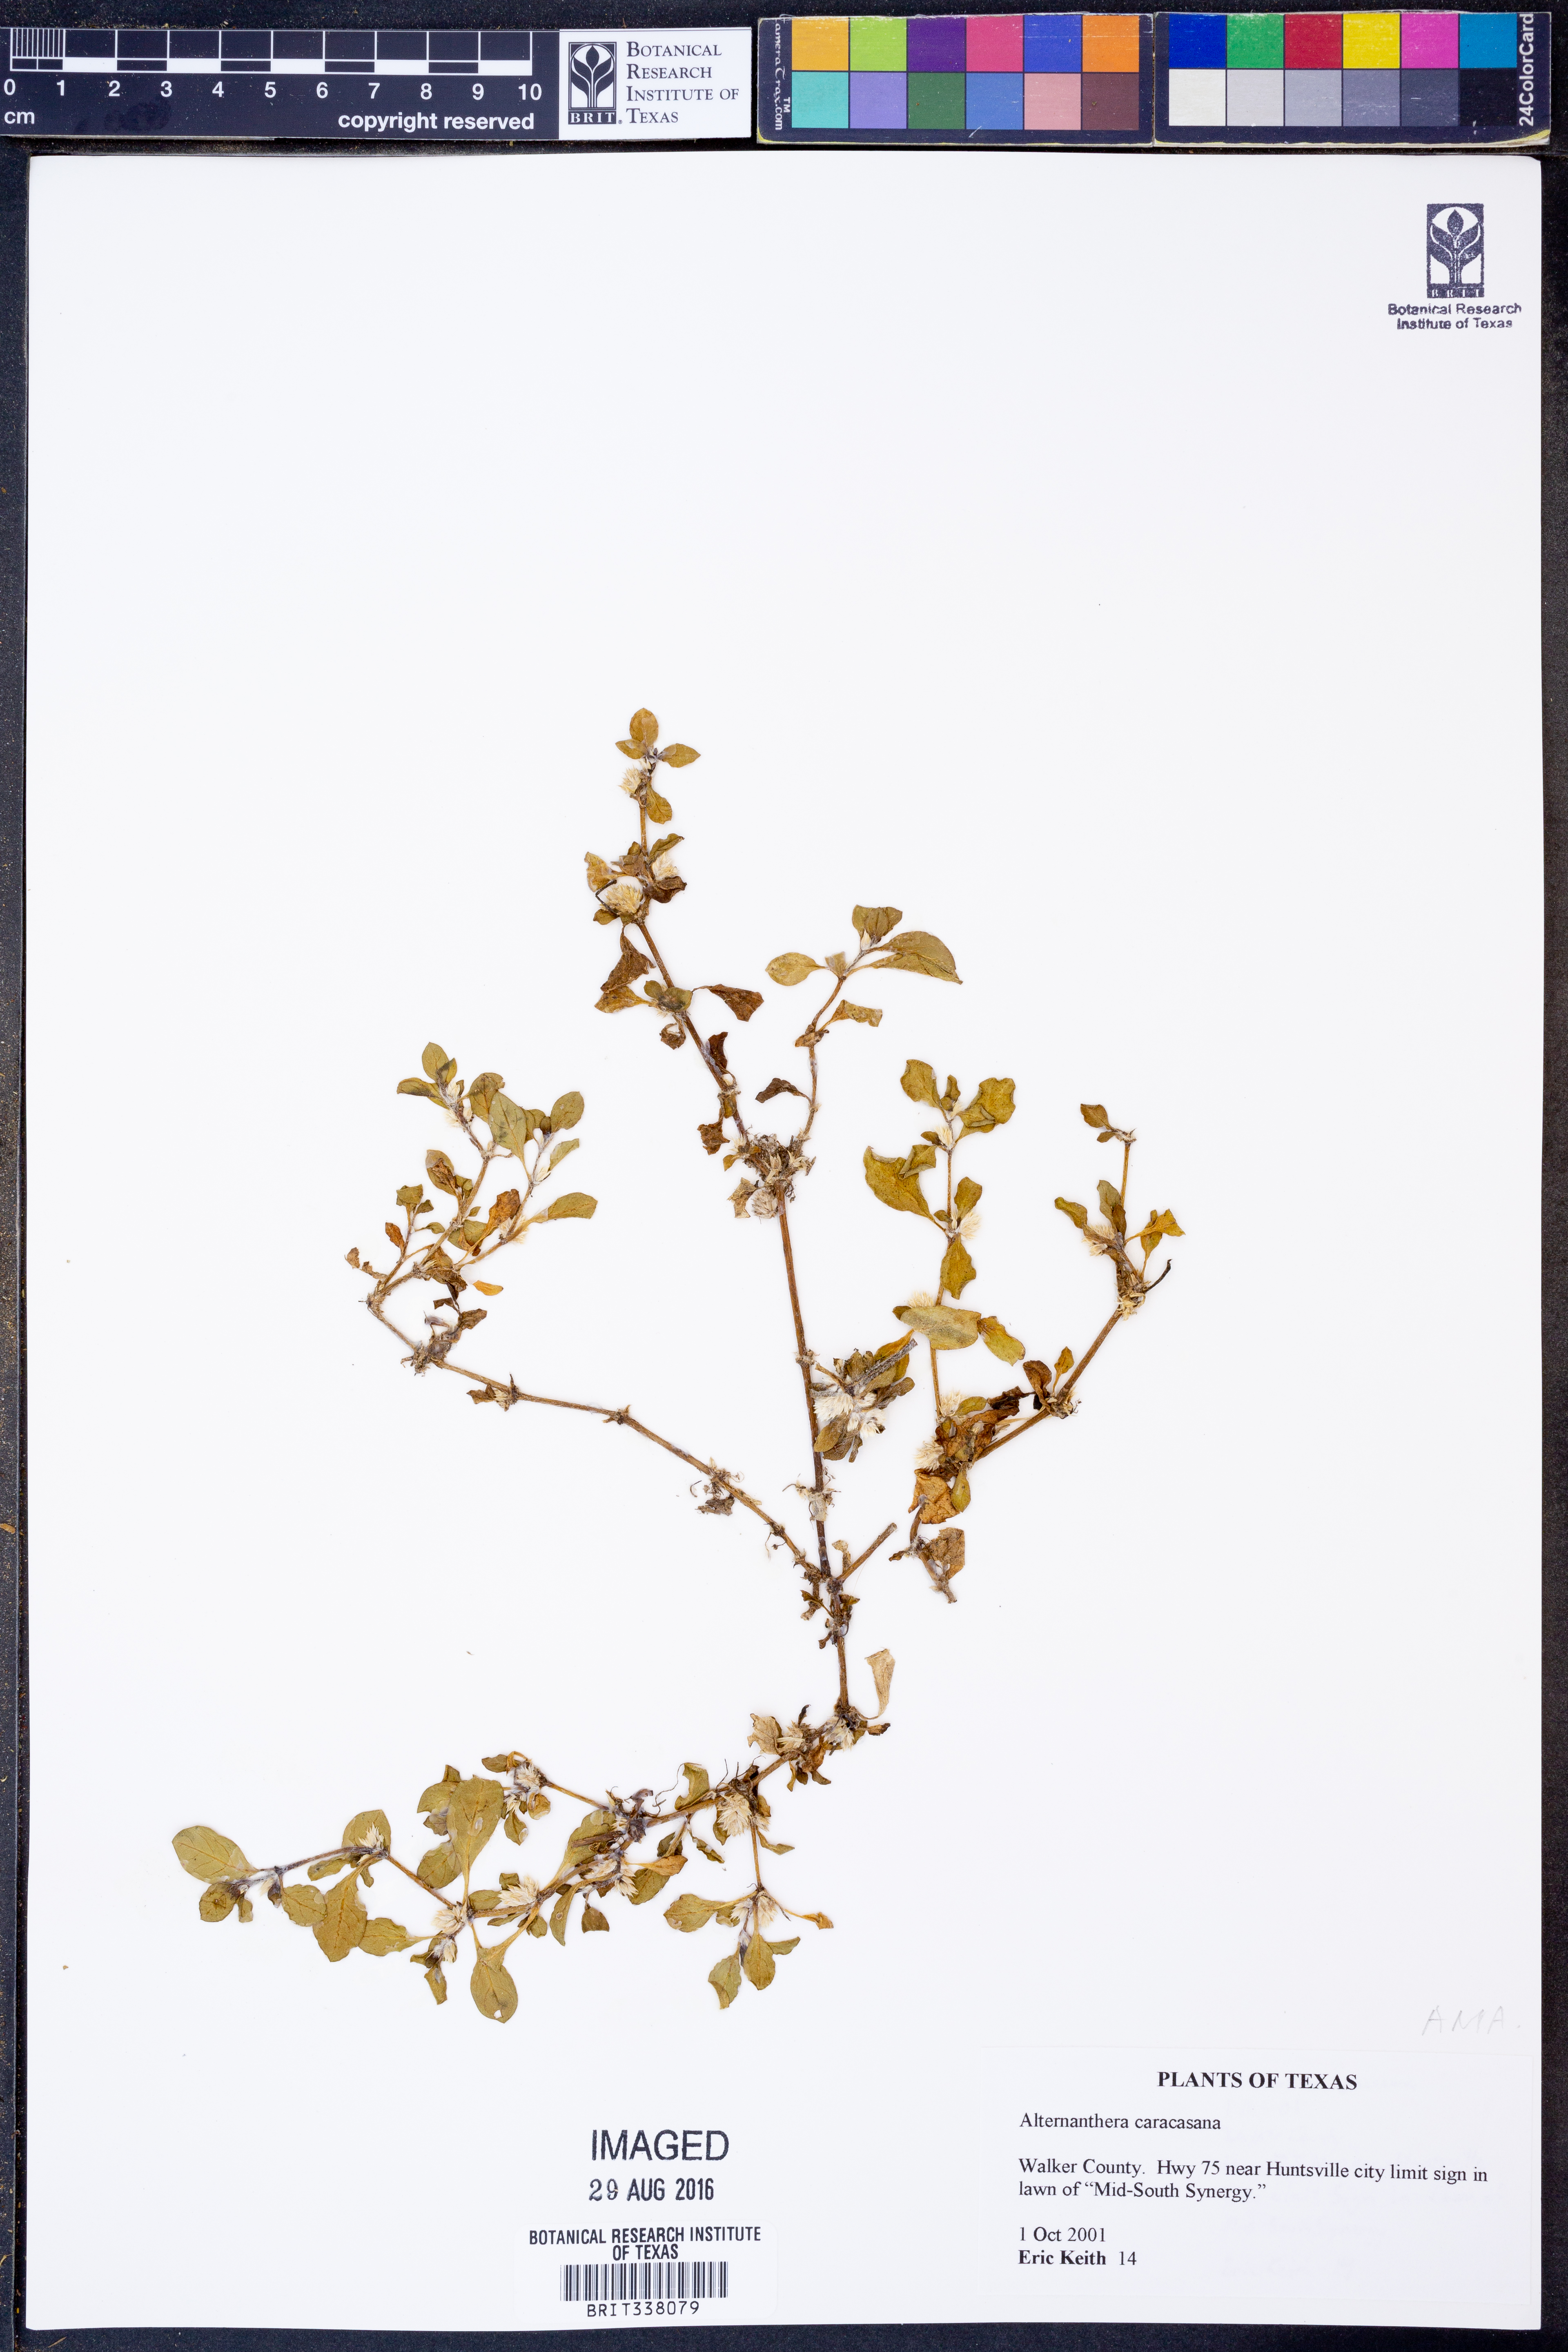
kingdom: Plantae
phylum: Tracheophyta
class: Magnoliopsida
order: Caryophyllales
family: Amaranthaceae
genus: Alternanthera
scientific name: Alternanthera caracasana
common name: Washerwoman
